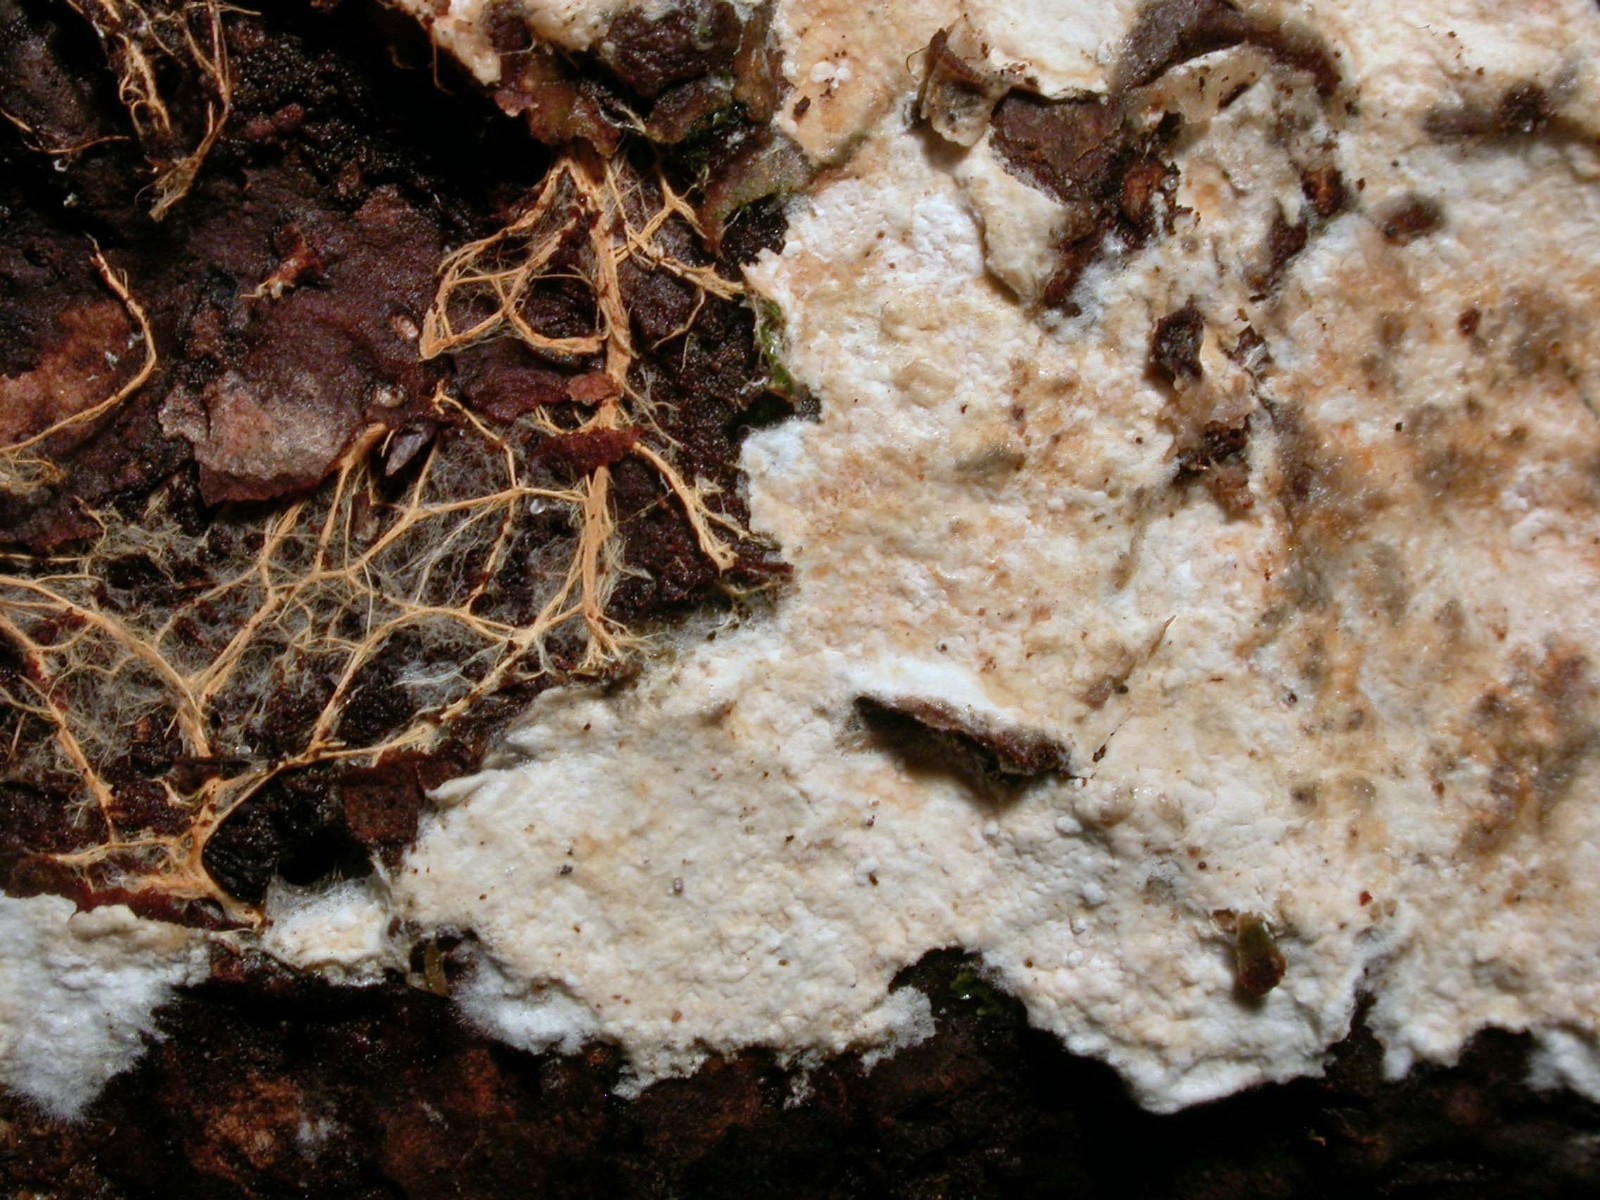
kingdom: Fungi
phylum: Basidiomycota
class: Agaricomycetes
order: Atheliales
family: Atheliaceae
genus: Leptosporomyces
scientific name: Leptosporomyces fuscostratus
